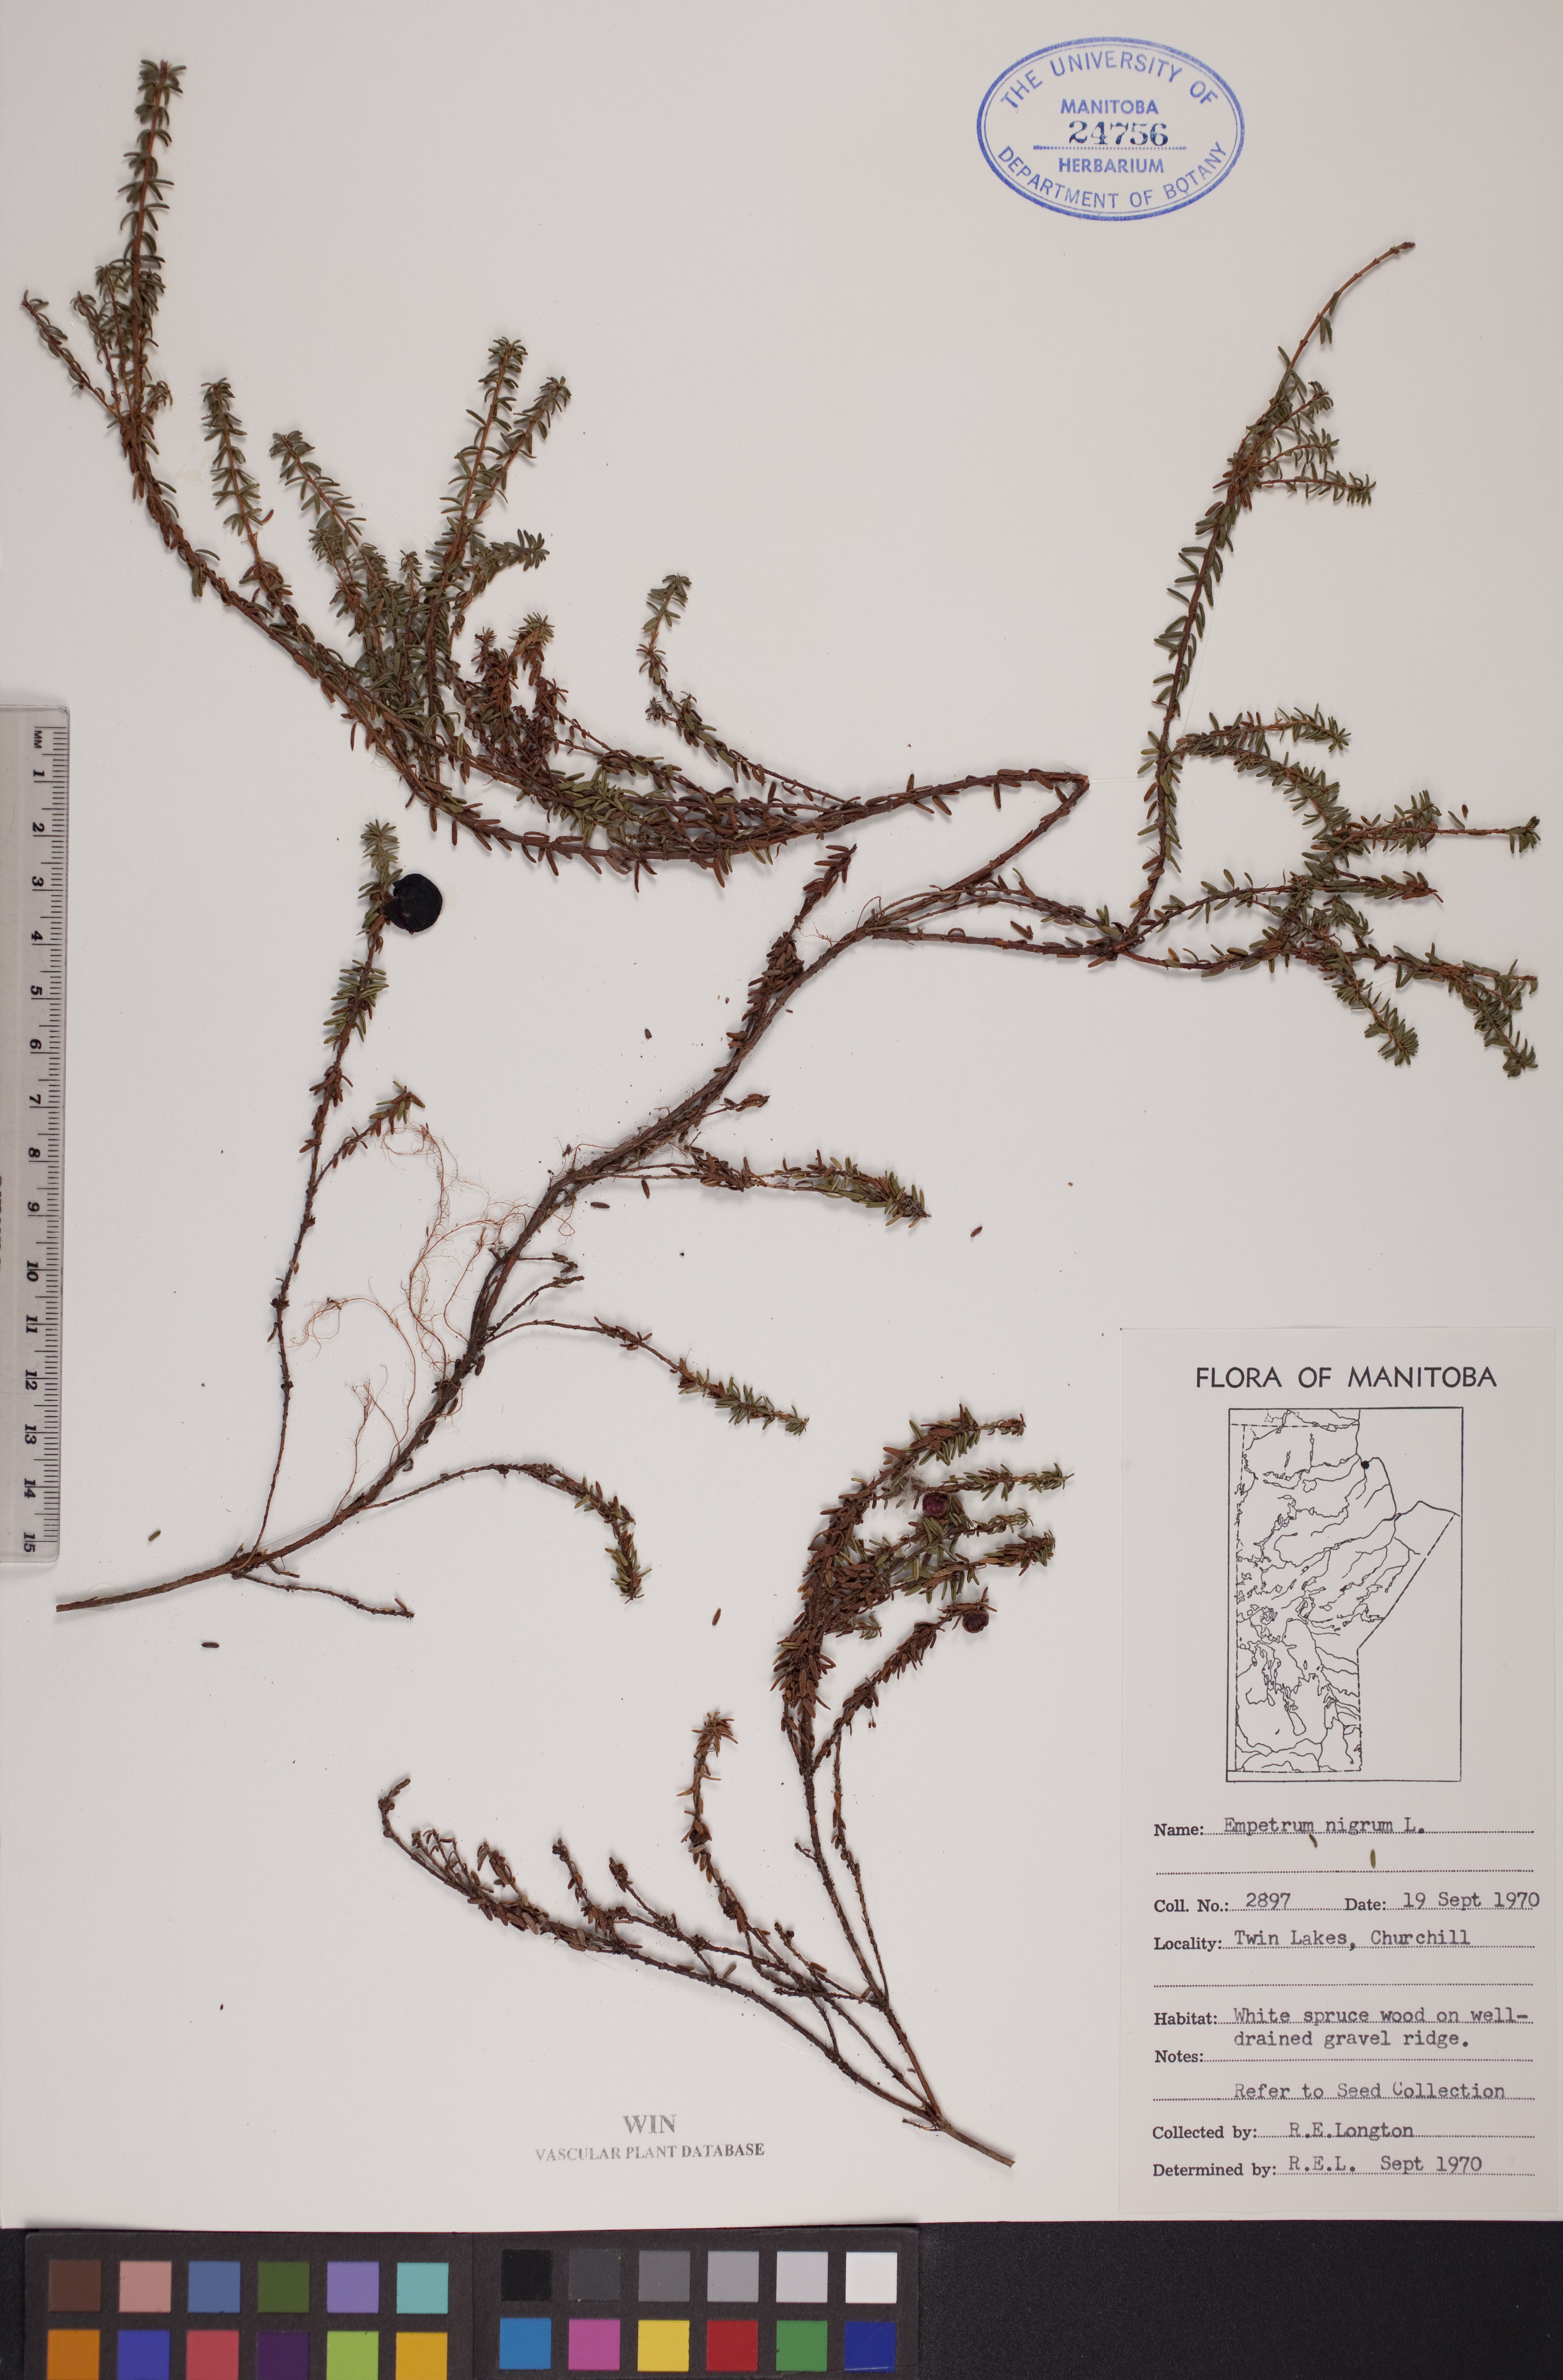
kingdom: Plantae
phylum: Tracheophyta
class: Magnoliopsida
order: Ericales
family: Ericaceae
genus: Empetrum
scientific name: Empetrum nigrum
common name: Black crowberry
